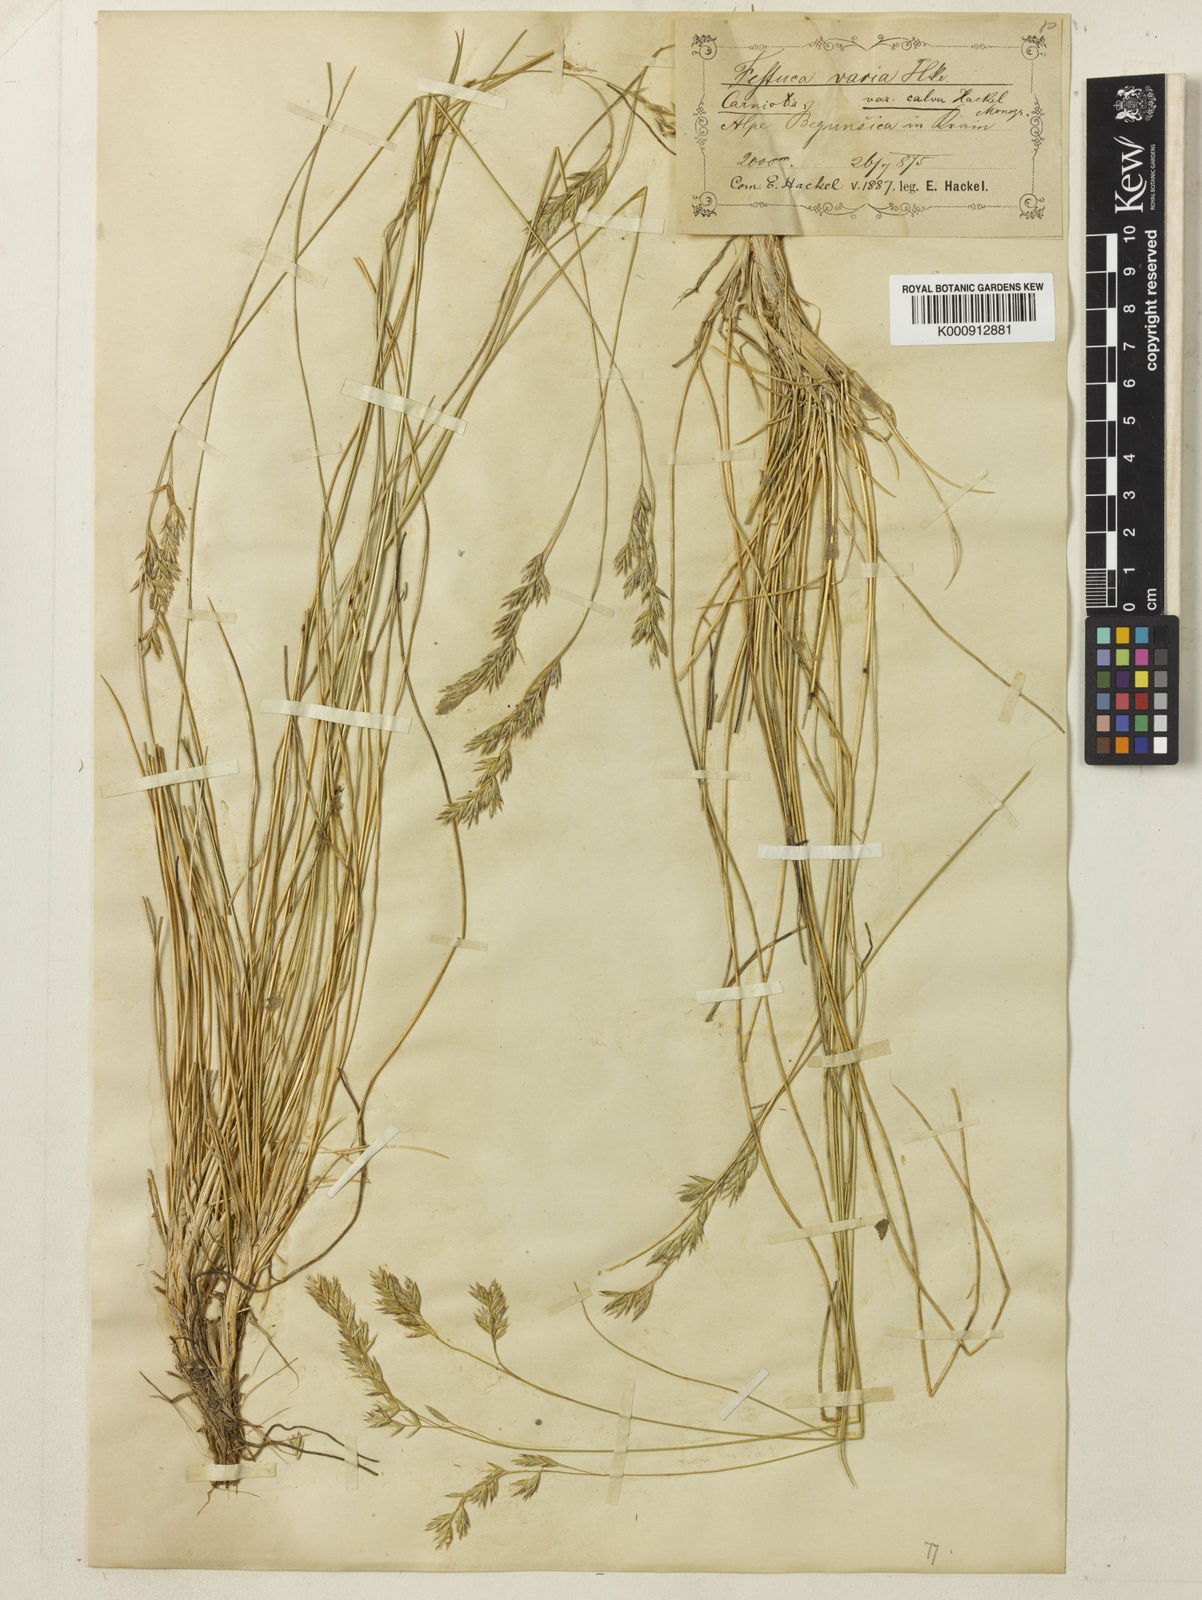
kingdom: Plantae
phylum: Tracheophyta
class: Liliopsida
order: Poales
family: Poaceae
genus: Festuca
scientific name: Festuca calva
